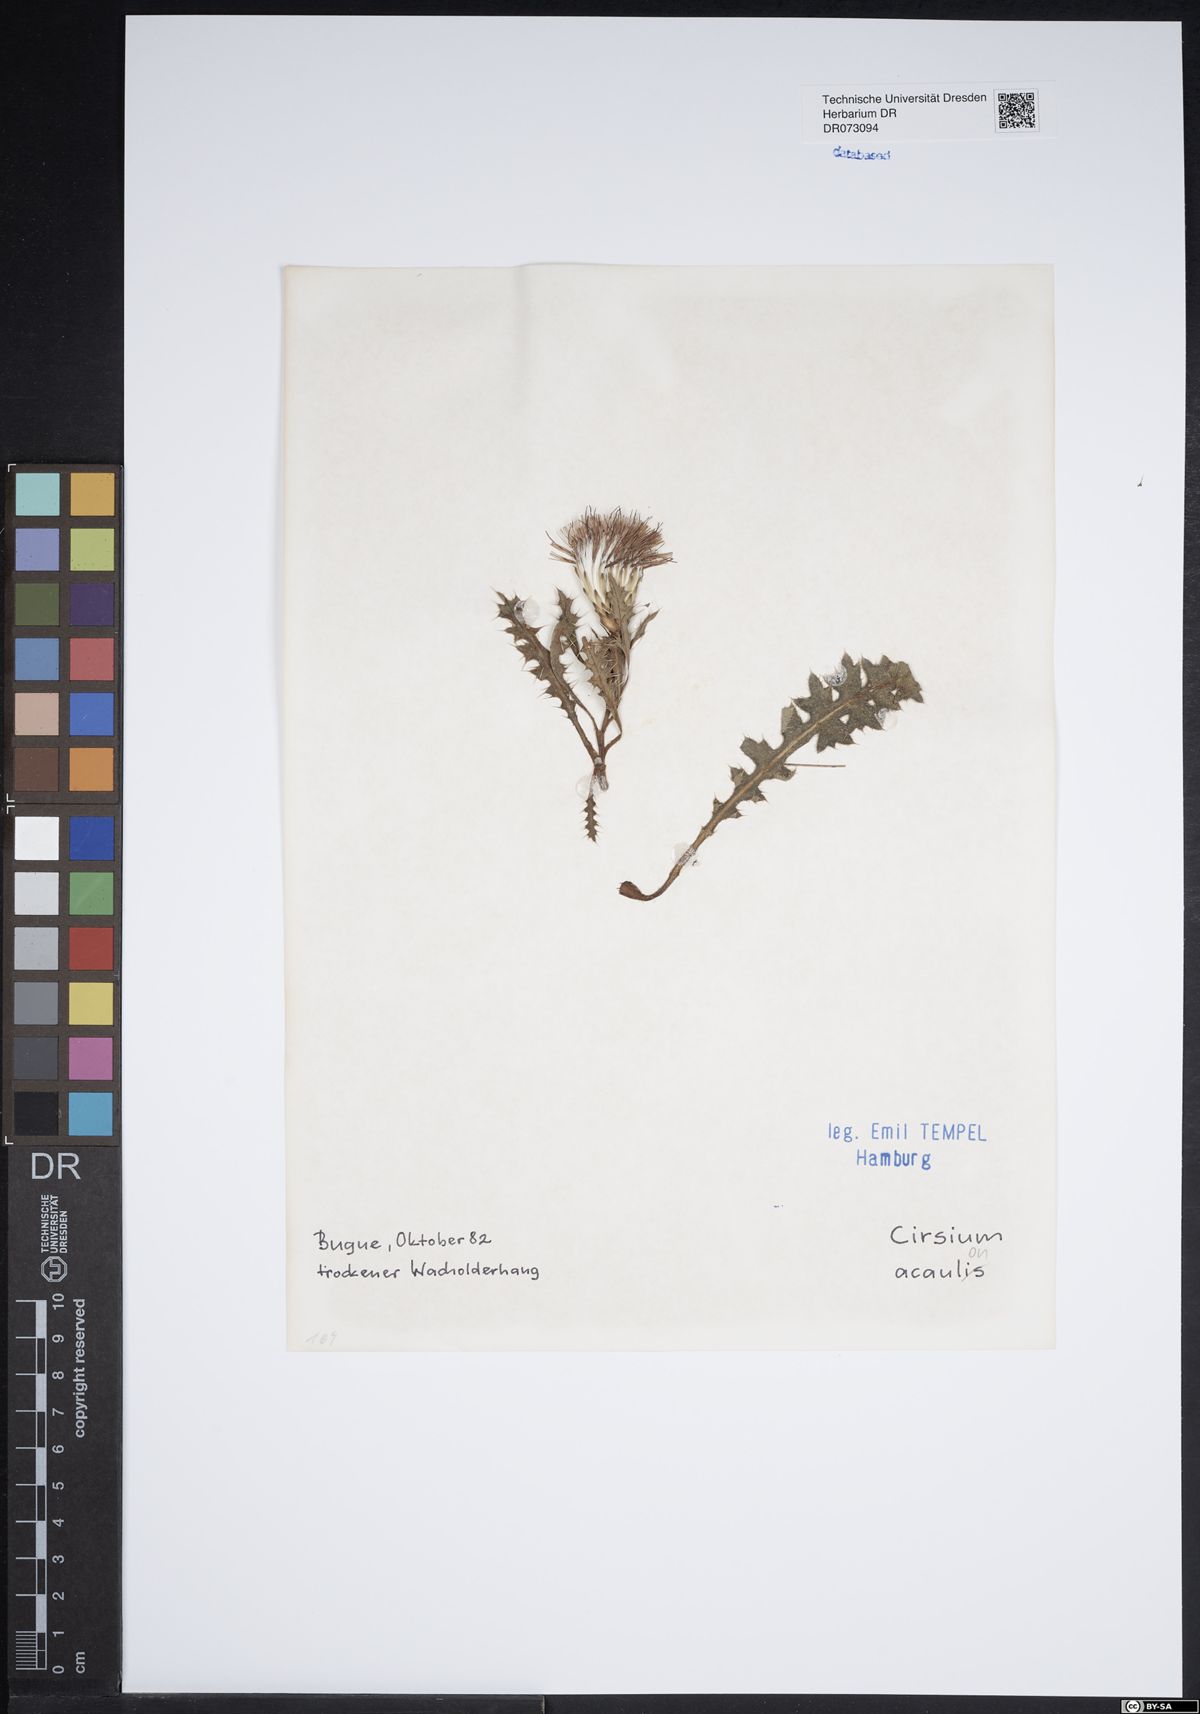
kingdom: Plantae
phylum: Tracheophyta
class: Magnoliopsida
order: Asterales
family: Asteraceae
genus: Pericallis
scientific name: Pericallis lanata
